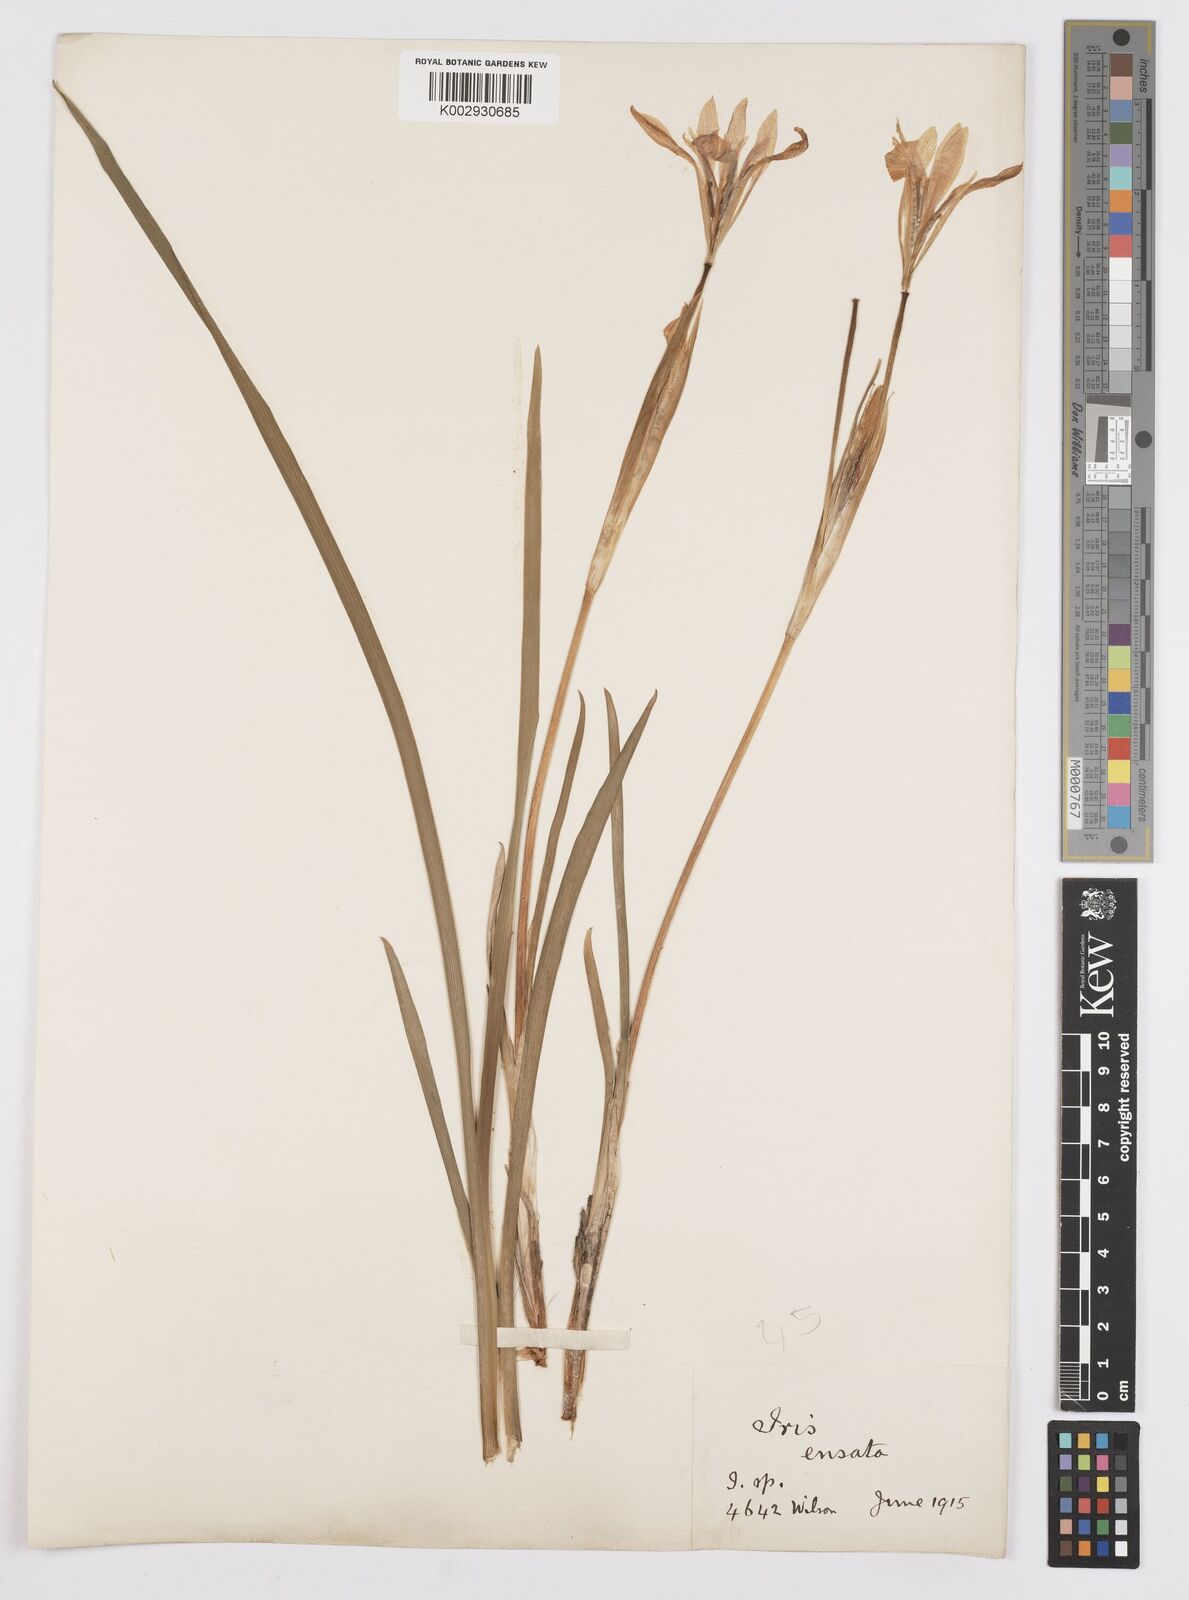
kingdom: Plantae
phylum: Tracheophyta
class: Liliopsida
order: Asparagales
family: Iridaceae
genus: Iris
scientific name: Iris ensata
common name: Beaked iris
